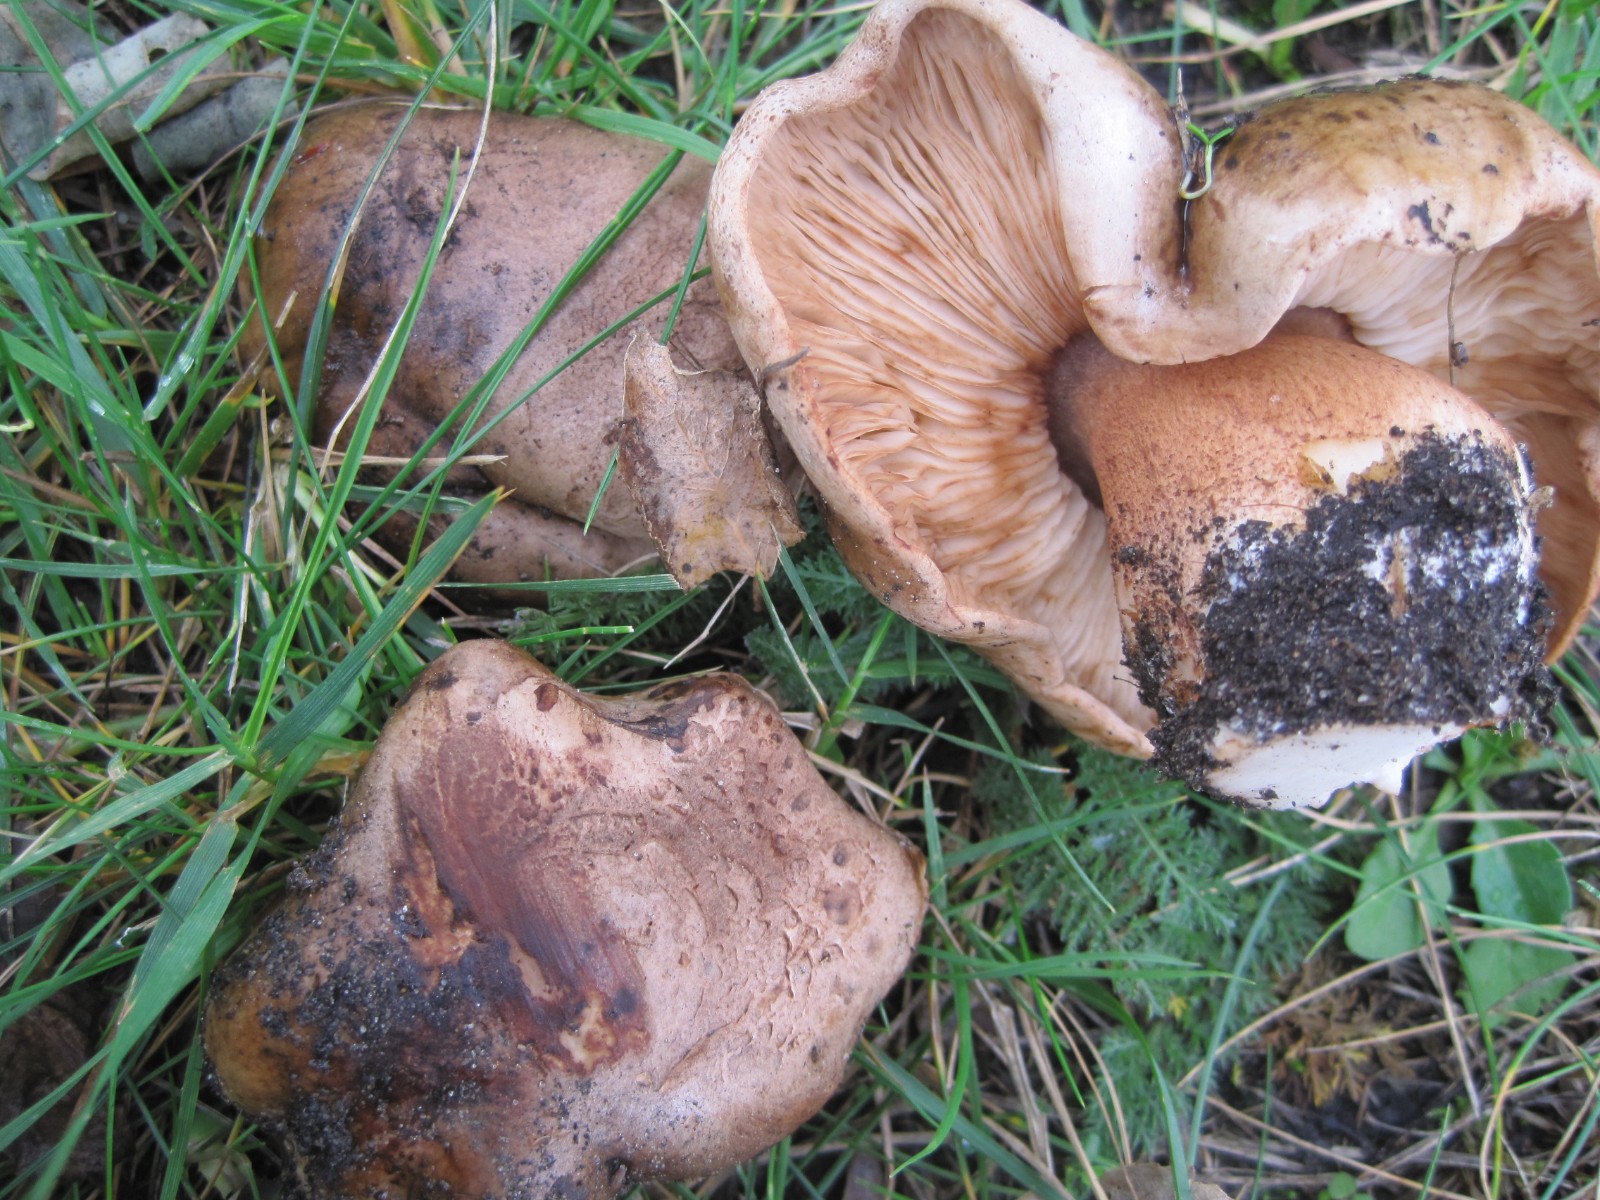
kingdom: Fungi
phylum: Basidiomycota
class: Agaricomycetes
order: Agaricales
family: Tricholomataceae
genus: Tricholoma
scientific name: Tricholoma populinum
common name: poppel-ridderhat
